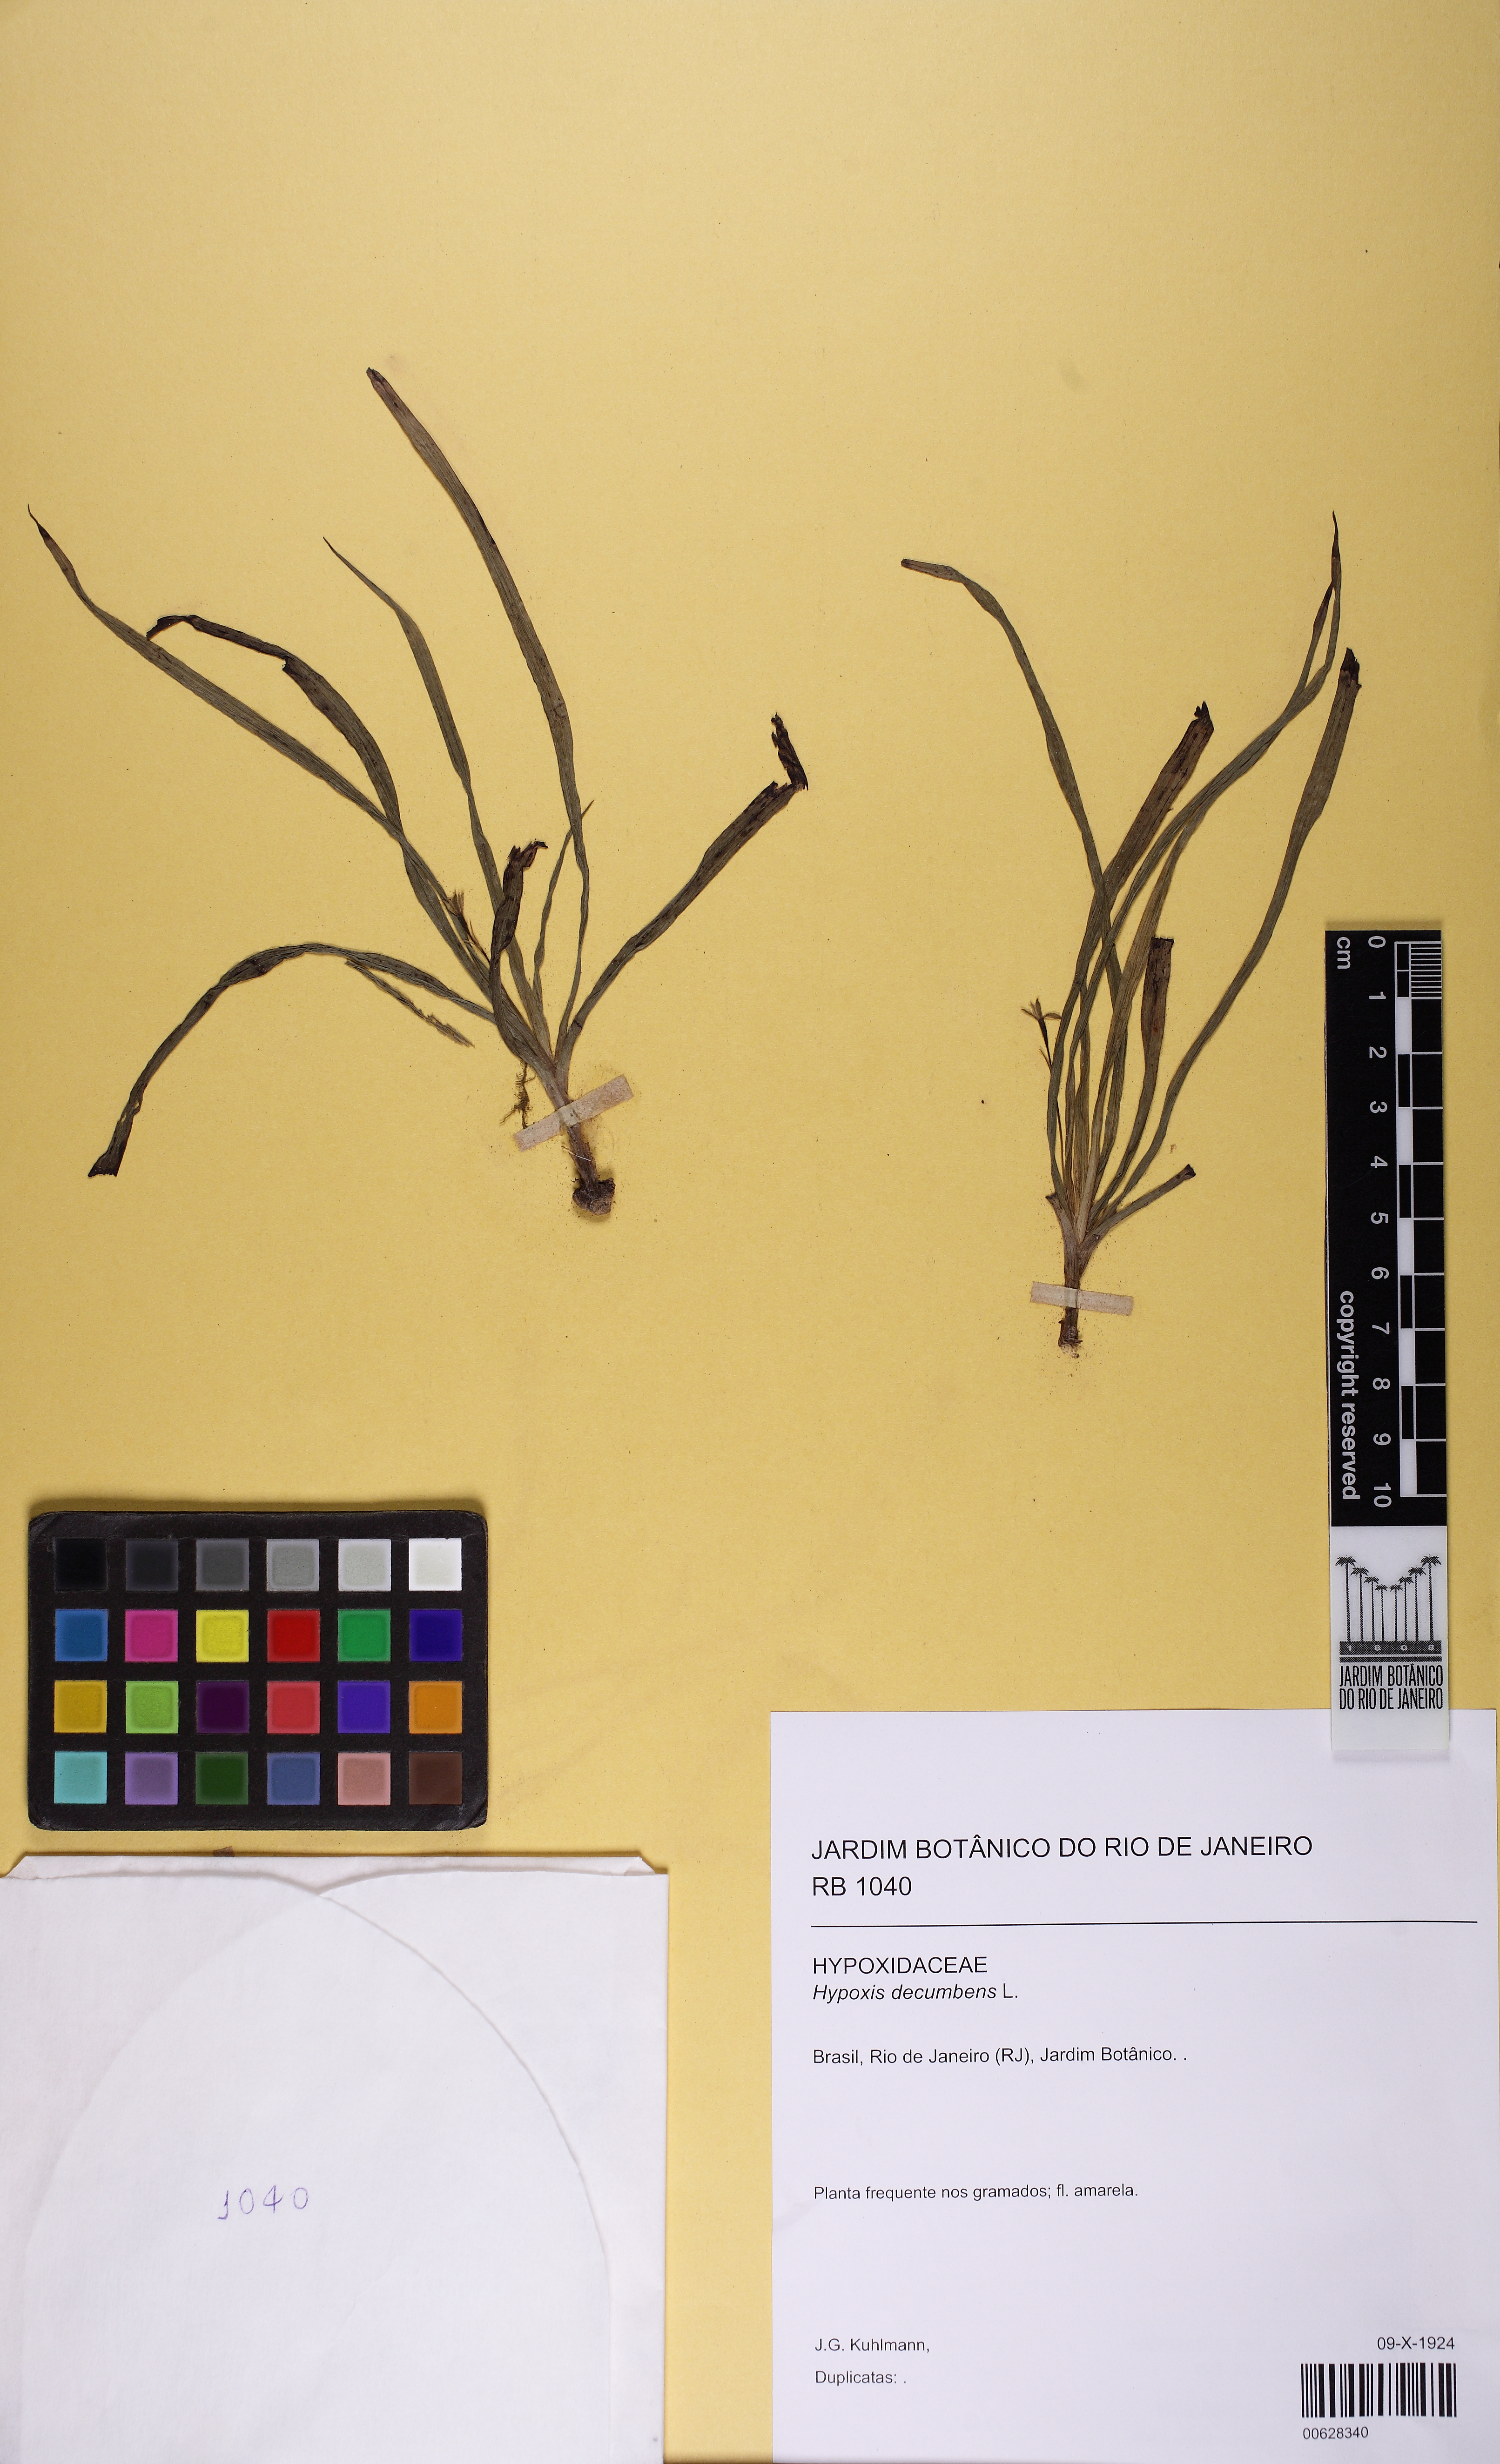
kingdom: Plantae
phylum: Tracheophyta
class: Liliopsida
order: Asparagales
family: Hypoxidaceae
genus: Hypoxis
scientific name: Hypoxis decumbens
